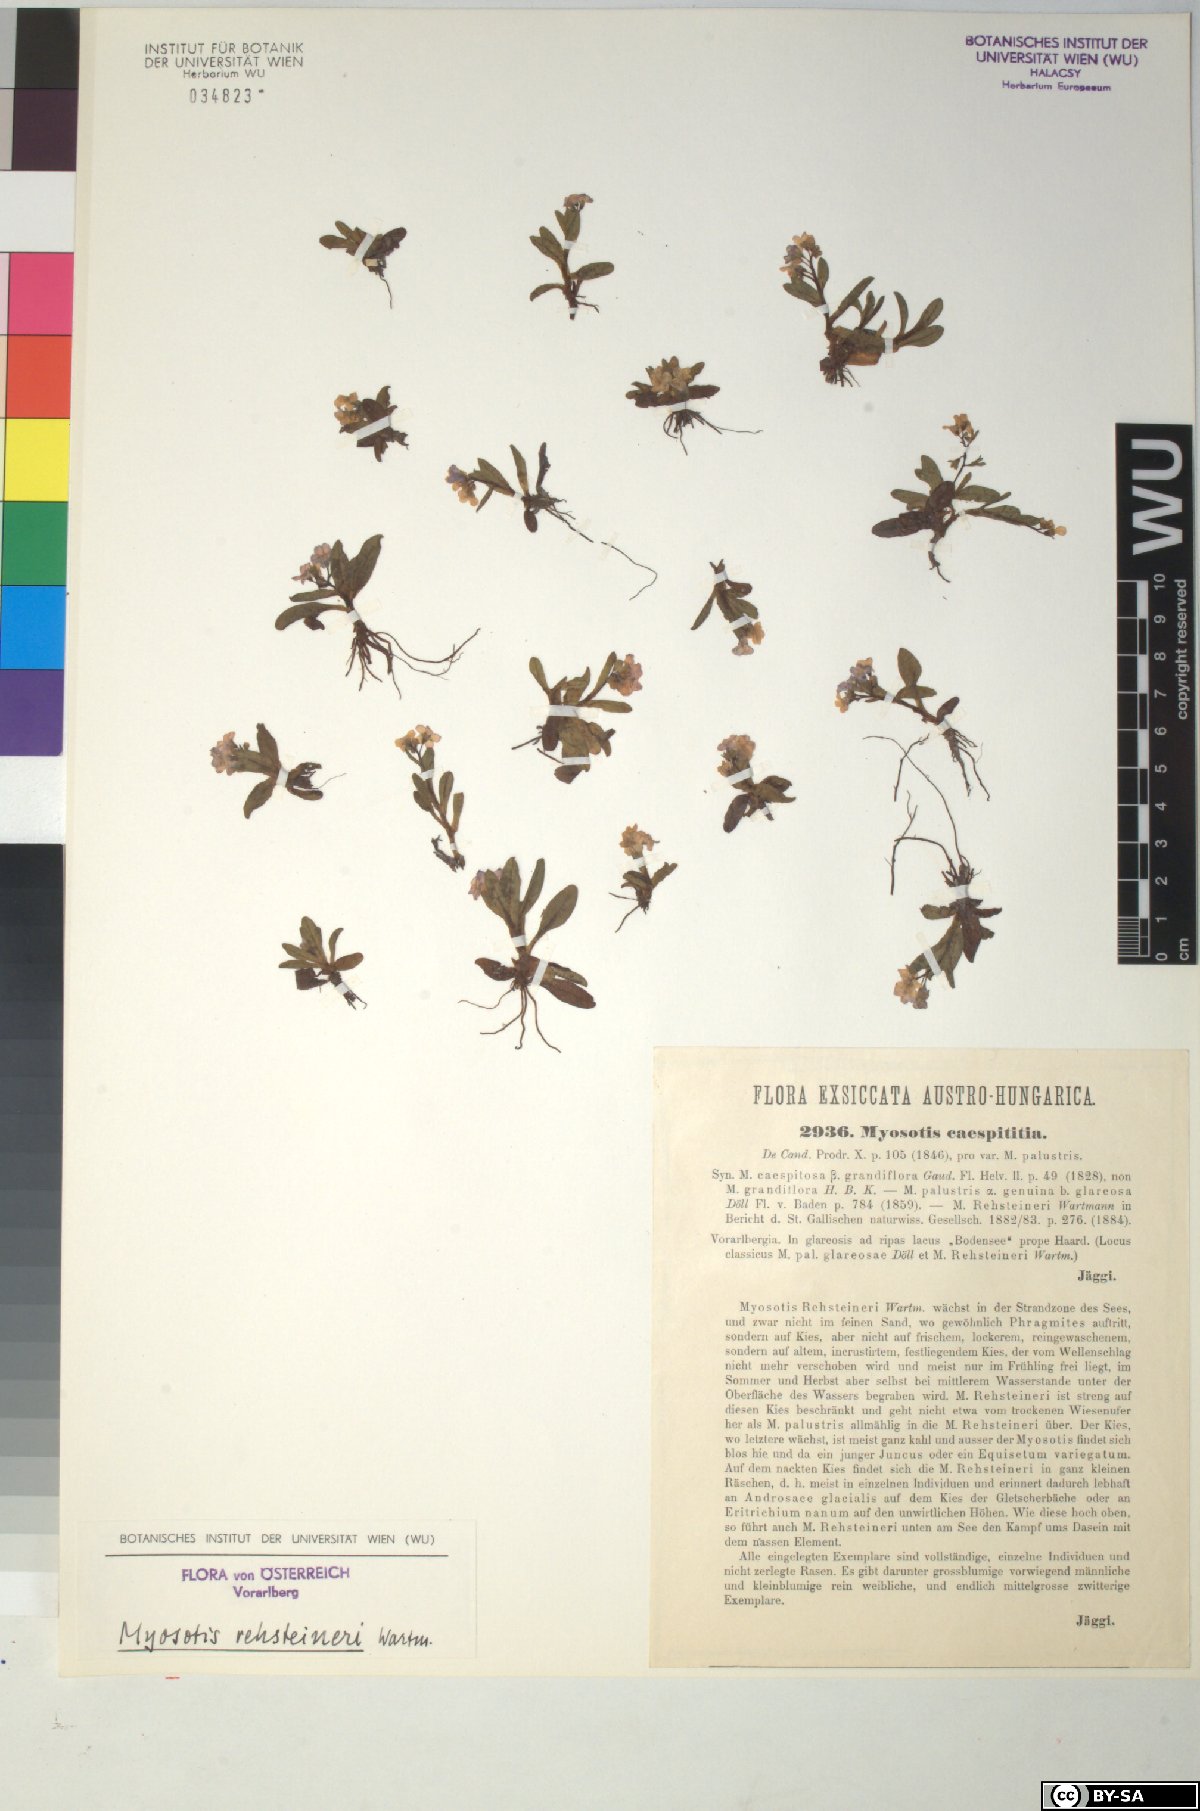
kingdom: Plantae
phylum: Tracheophyta
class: Magnoliopsida
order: Boraginales
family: Boraginaceae
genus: Myosotis
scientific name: Myosotis rehsteineri
